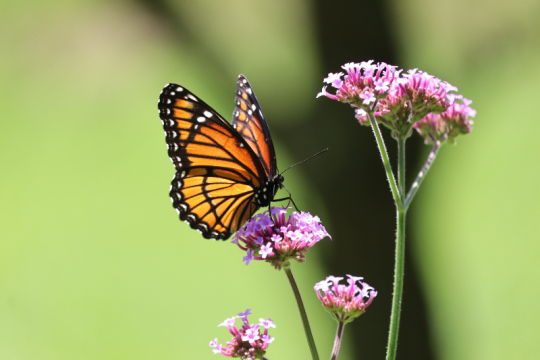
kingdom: Animalia
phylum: Arthropoda
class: Insecta
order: Lepidoptera
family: Nymphalidae
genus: Limenitis
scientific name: Limenitis archippus
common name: Viceroy
